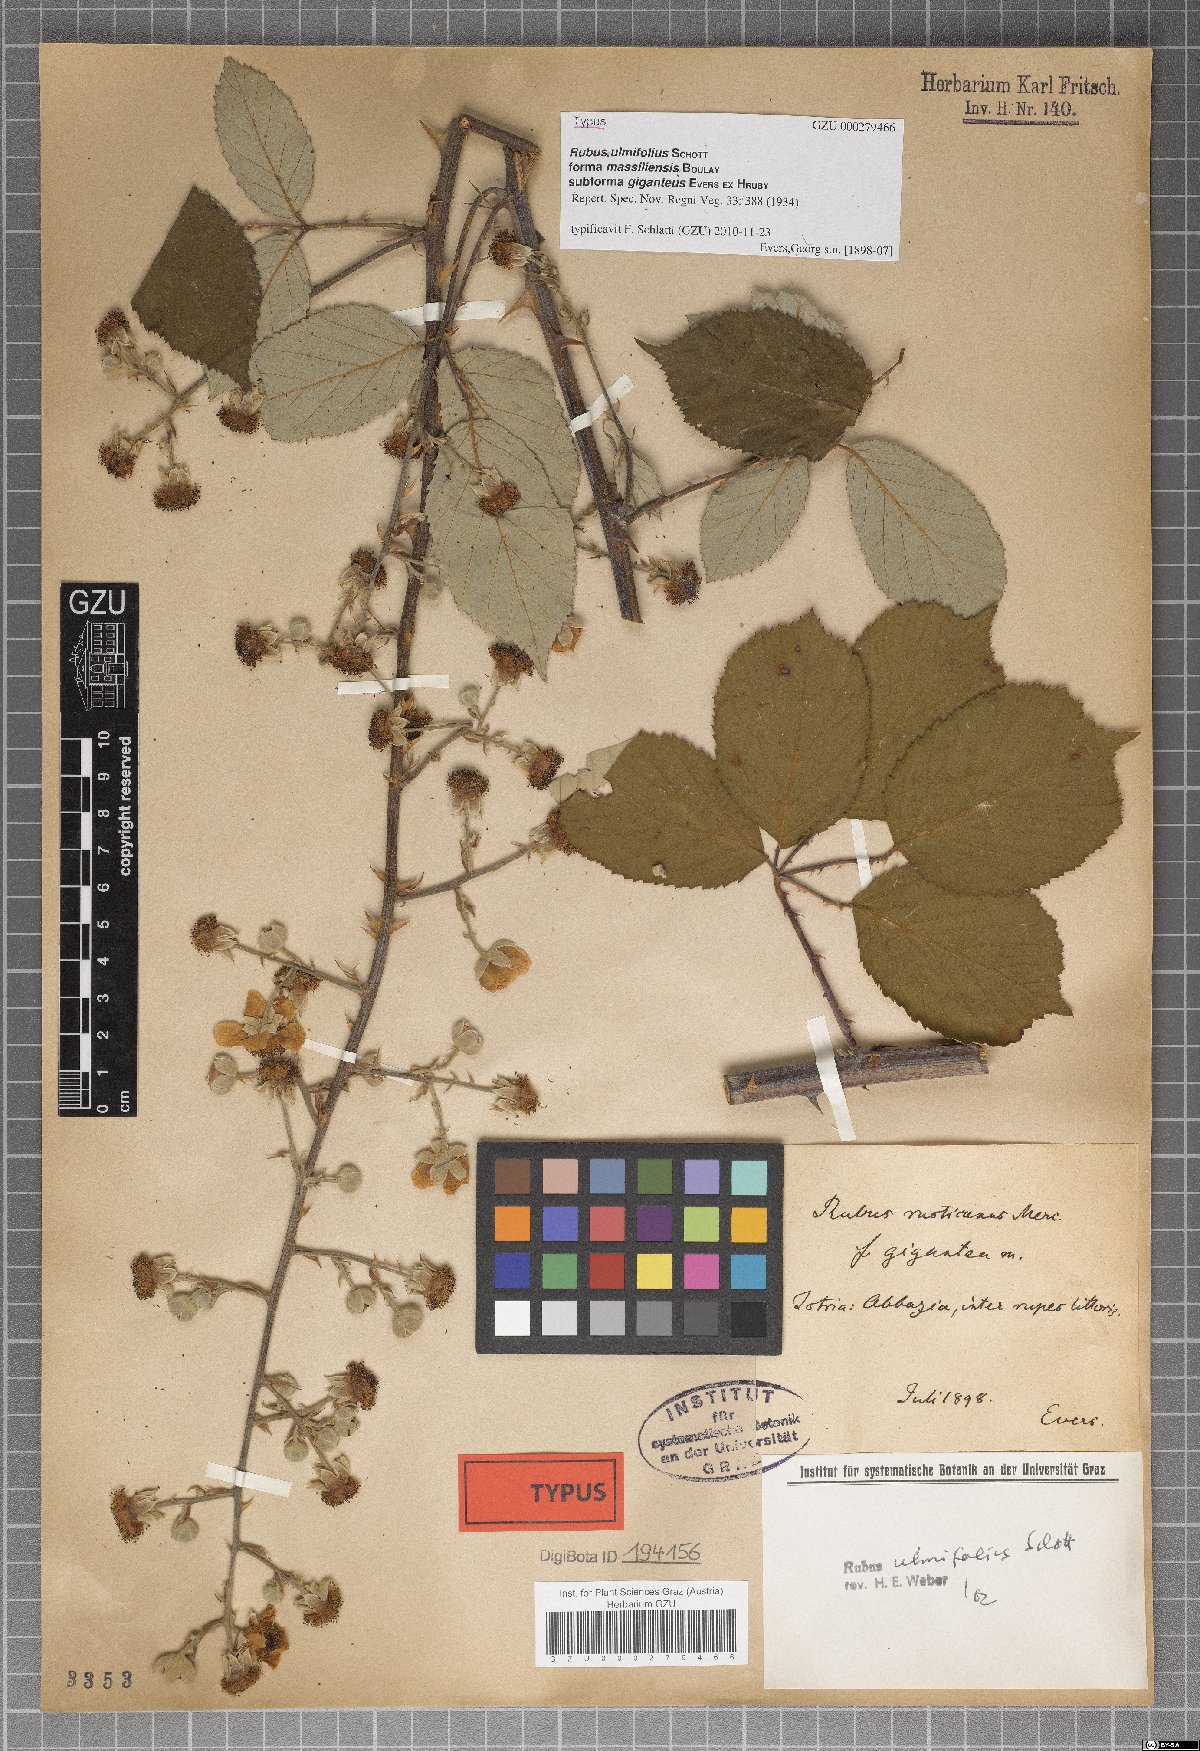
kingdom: Plantae
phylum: Tracheophyta
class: Magnoliopsida
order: Rosales
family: Rosaceae
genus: Rubus
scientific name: Rubus ulmifolius
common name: Elmleaf blackberry
